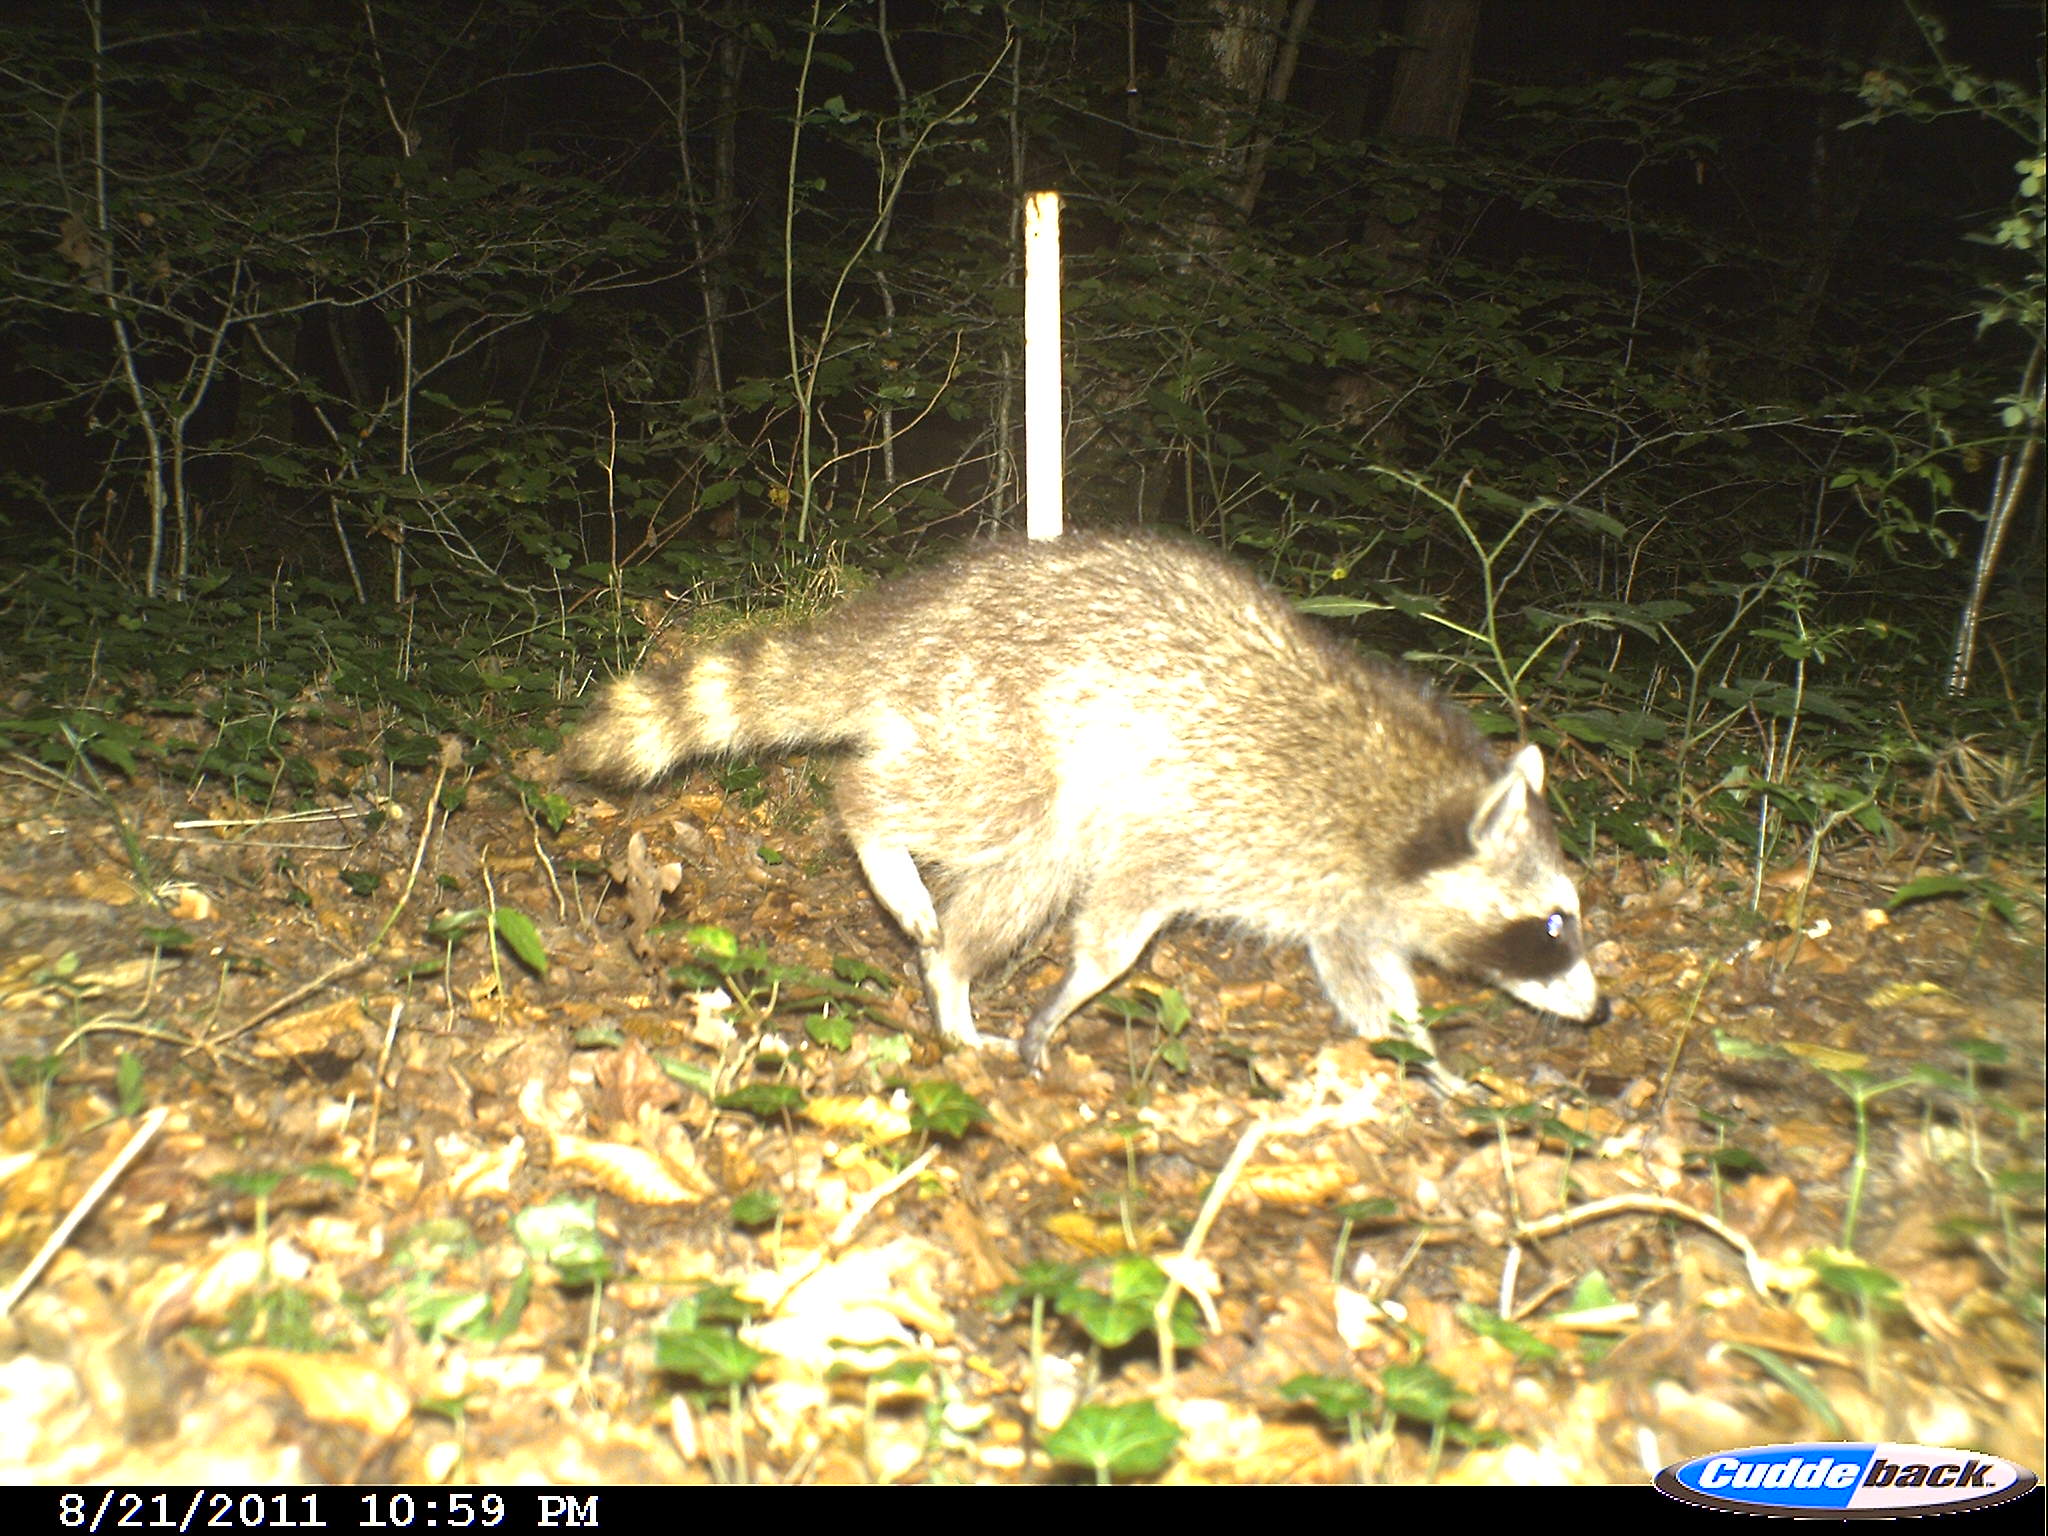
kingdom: Animalia
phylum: Chordata
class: Mammalia
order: Carnivora
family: Procyonidae
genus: Procyon
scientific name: Procyon lotor
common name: Raccoon
